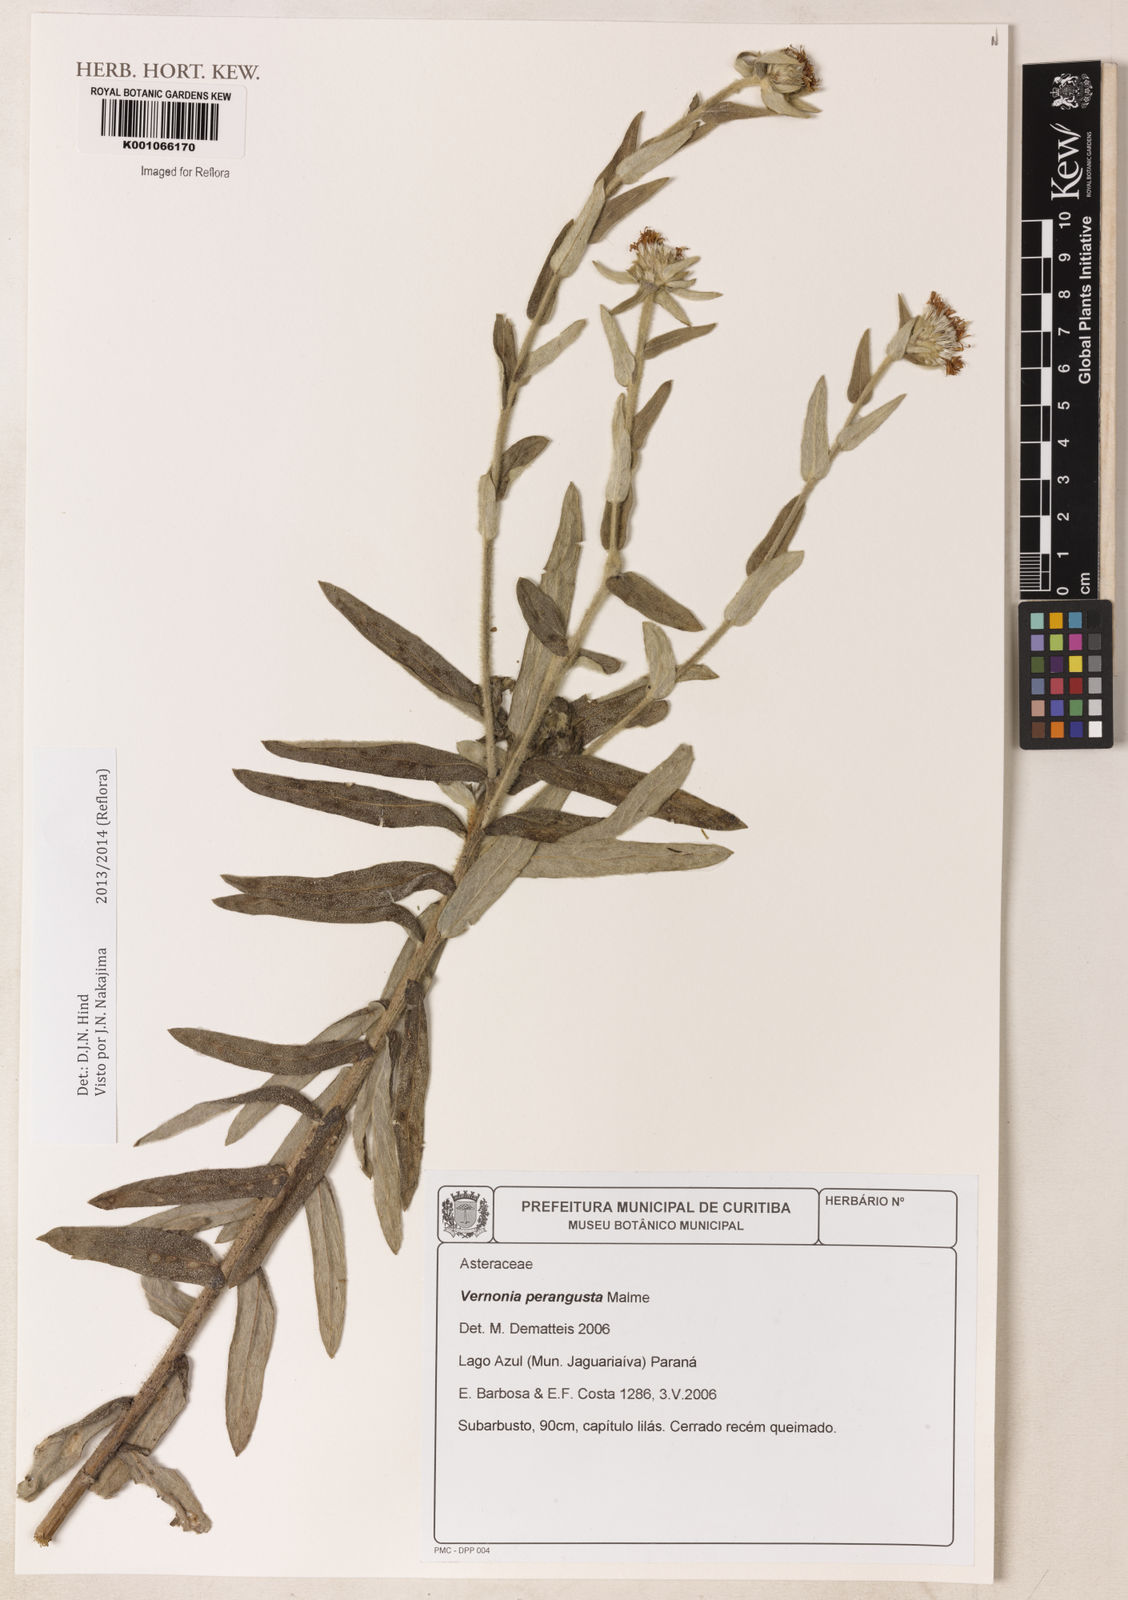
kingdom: Plantae
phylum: Tracheophyta
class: Magnoliopsida
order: Asterales
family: Asteraceae
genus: Vernonia
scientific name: Vernonia
